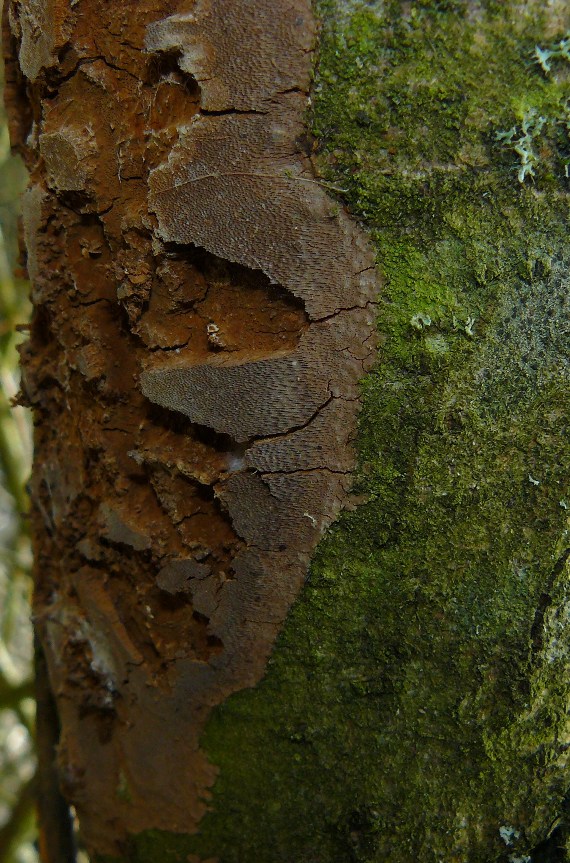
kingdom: Fungi
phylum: Basidiomycota
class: Agaricomycetes
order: Hymenochaetales
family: Hymenochaetaceae
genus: Fomitiporia
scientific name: Fomitiporia punctata
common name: pude-ildporesvamp
